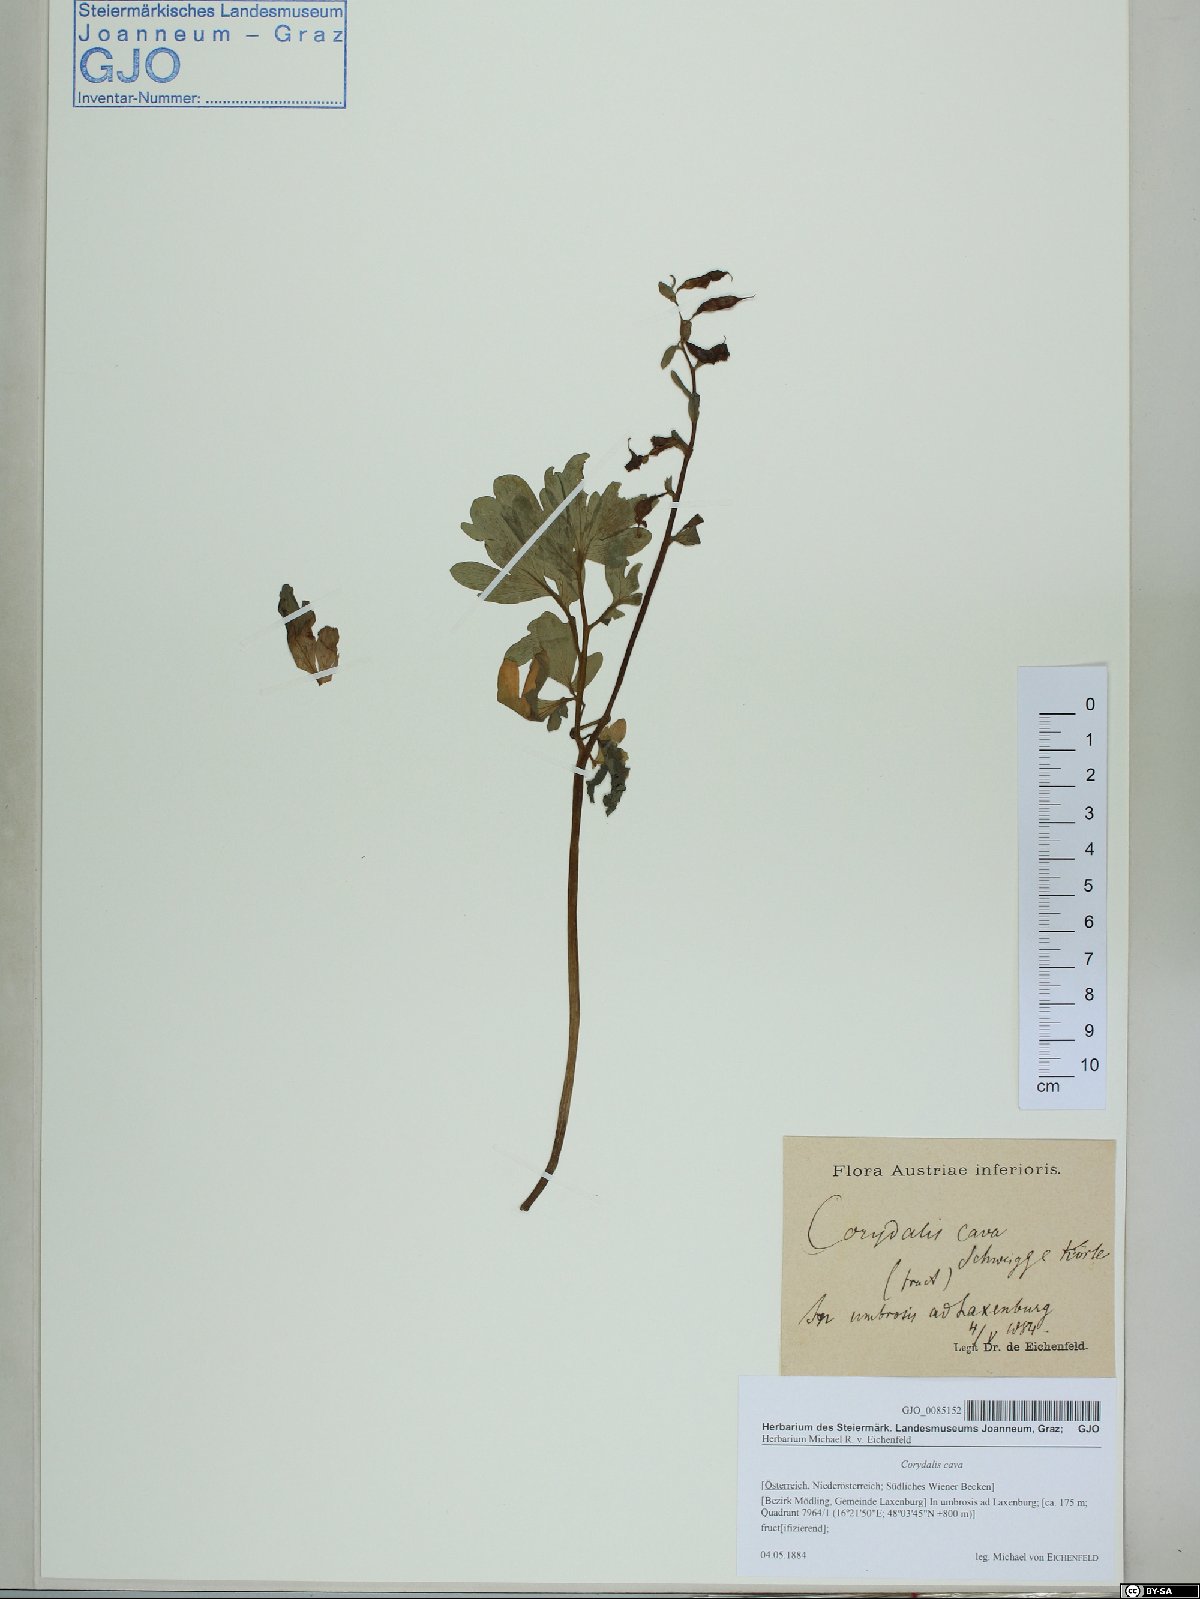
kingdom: Plantae
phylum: Tracheophyta
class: Magnoliopsida
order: Ranunculales
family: Papaveraceae
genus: Corydalis
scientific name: Corydalis cava
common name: Hollowroot
